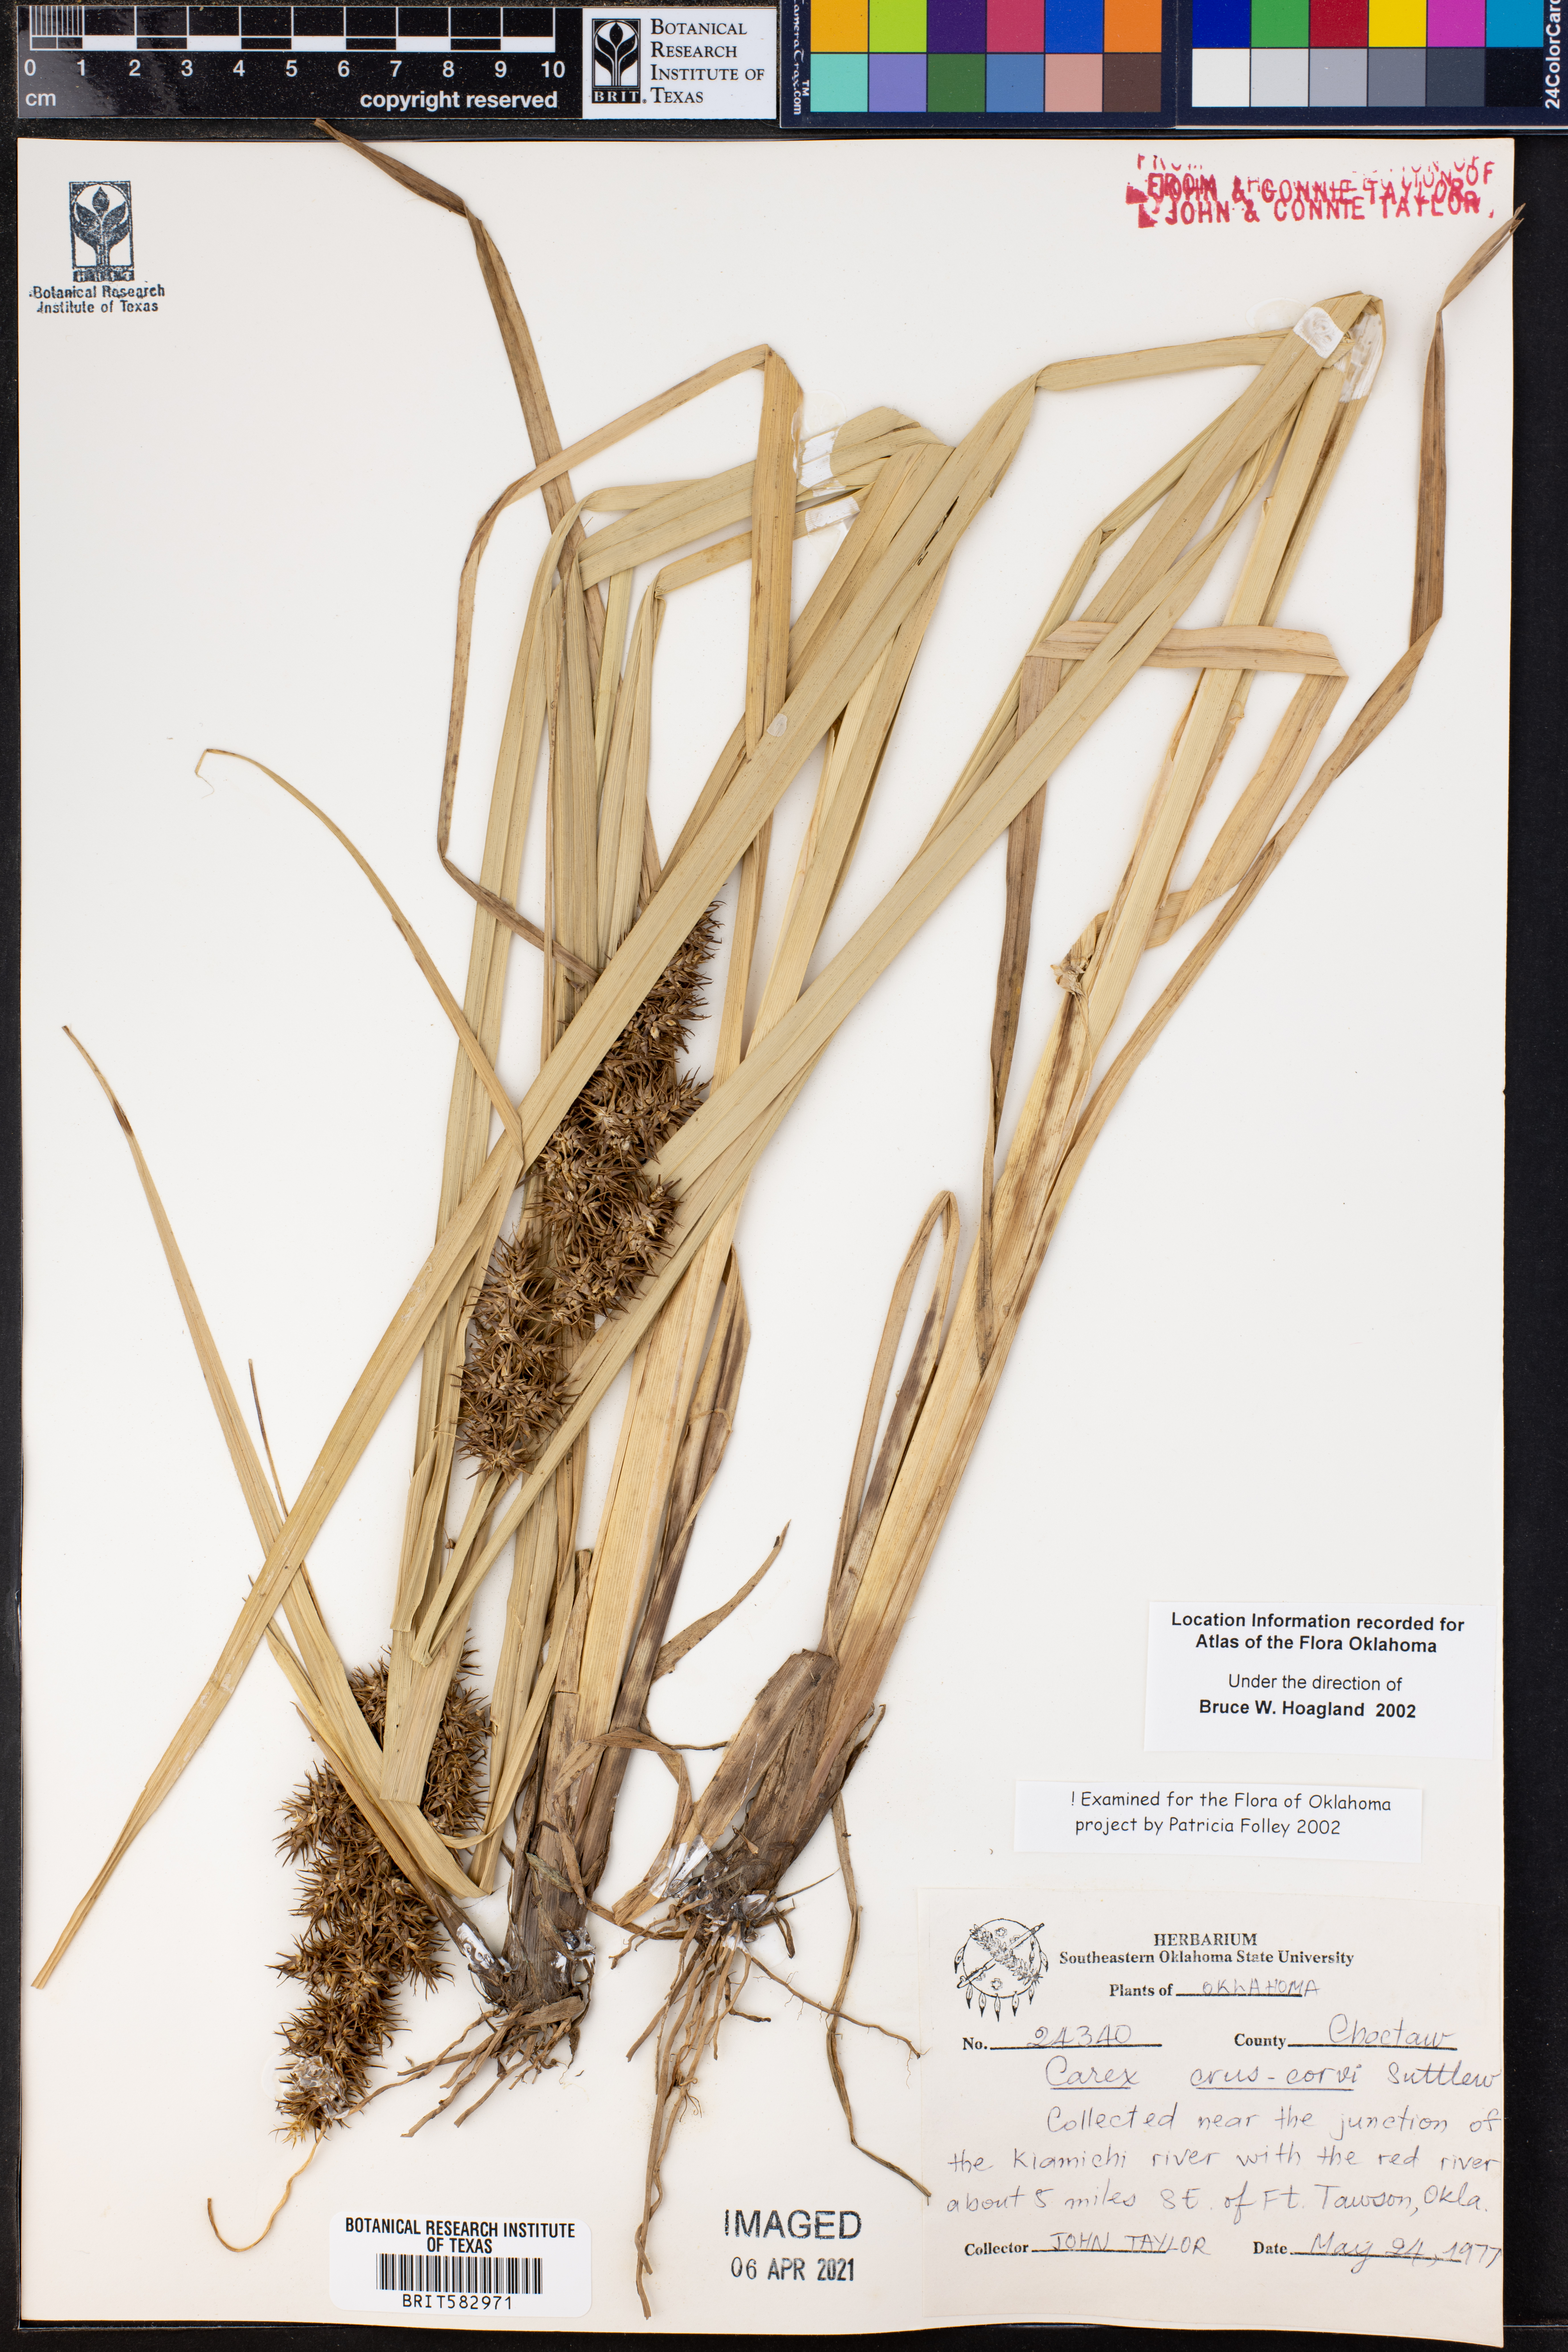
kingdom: Plantae
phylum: Tracheophyta
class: Liliopsida
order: Poales
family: Cyperaceae
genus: Carex
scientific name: Carex crus-corvi
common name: Crow-spur sedge
